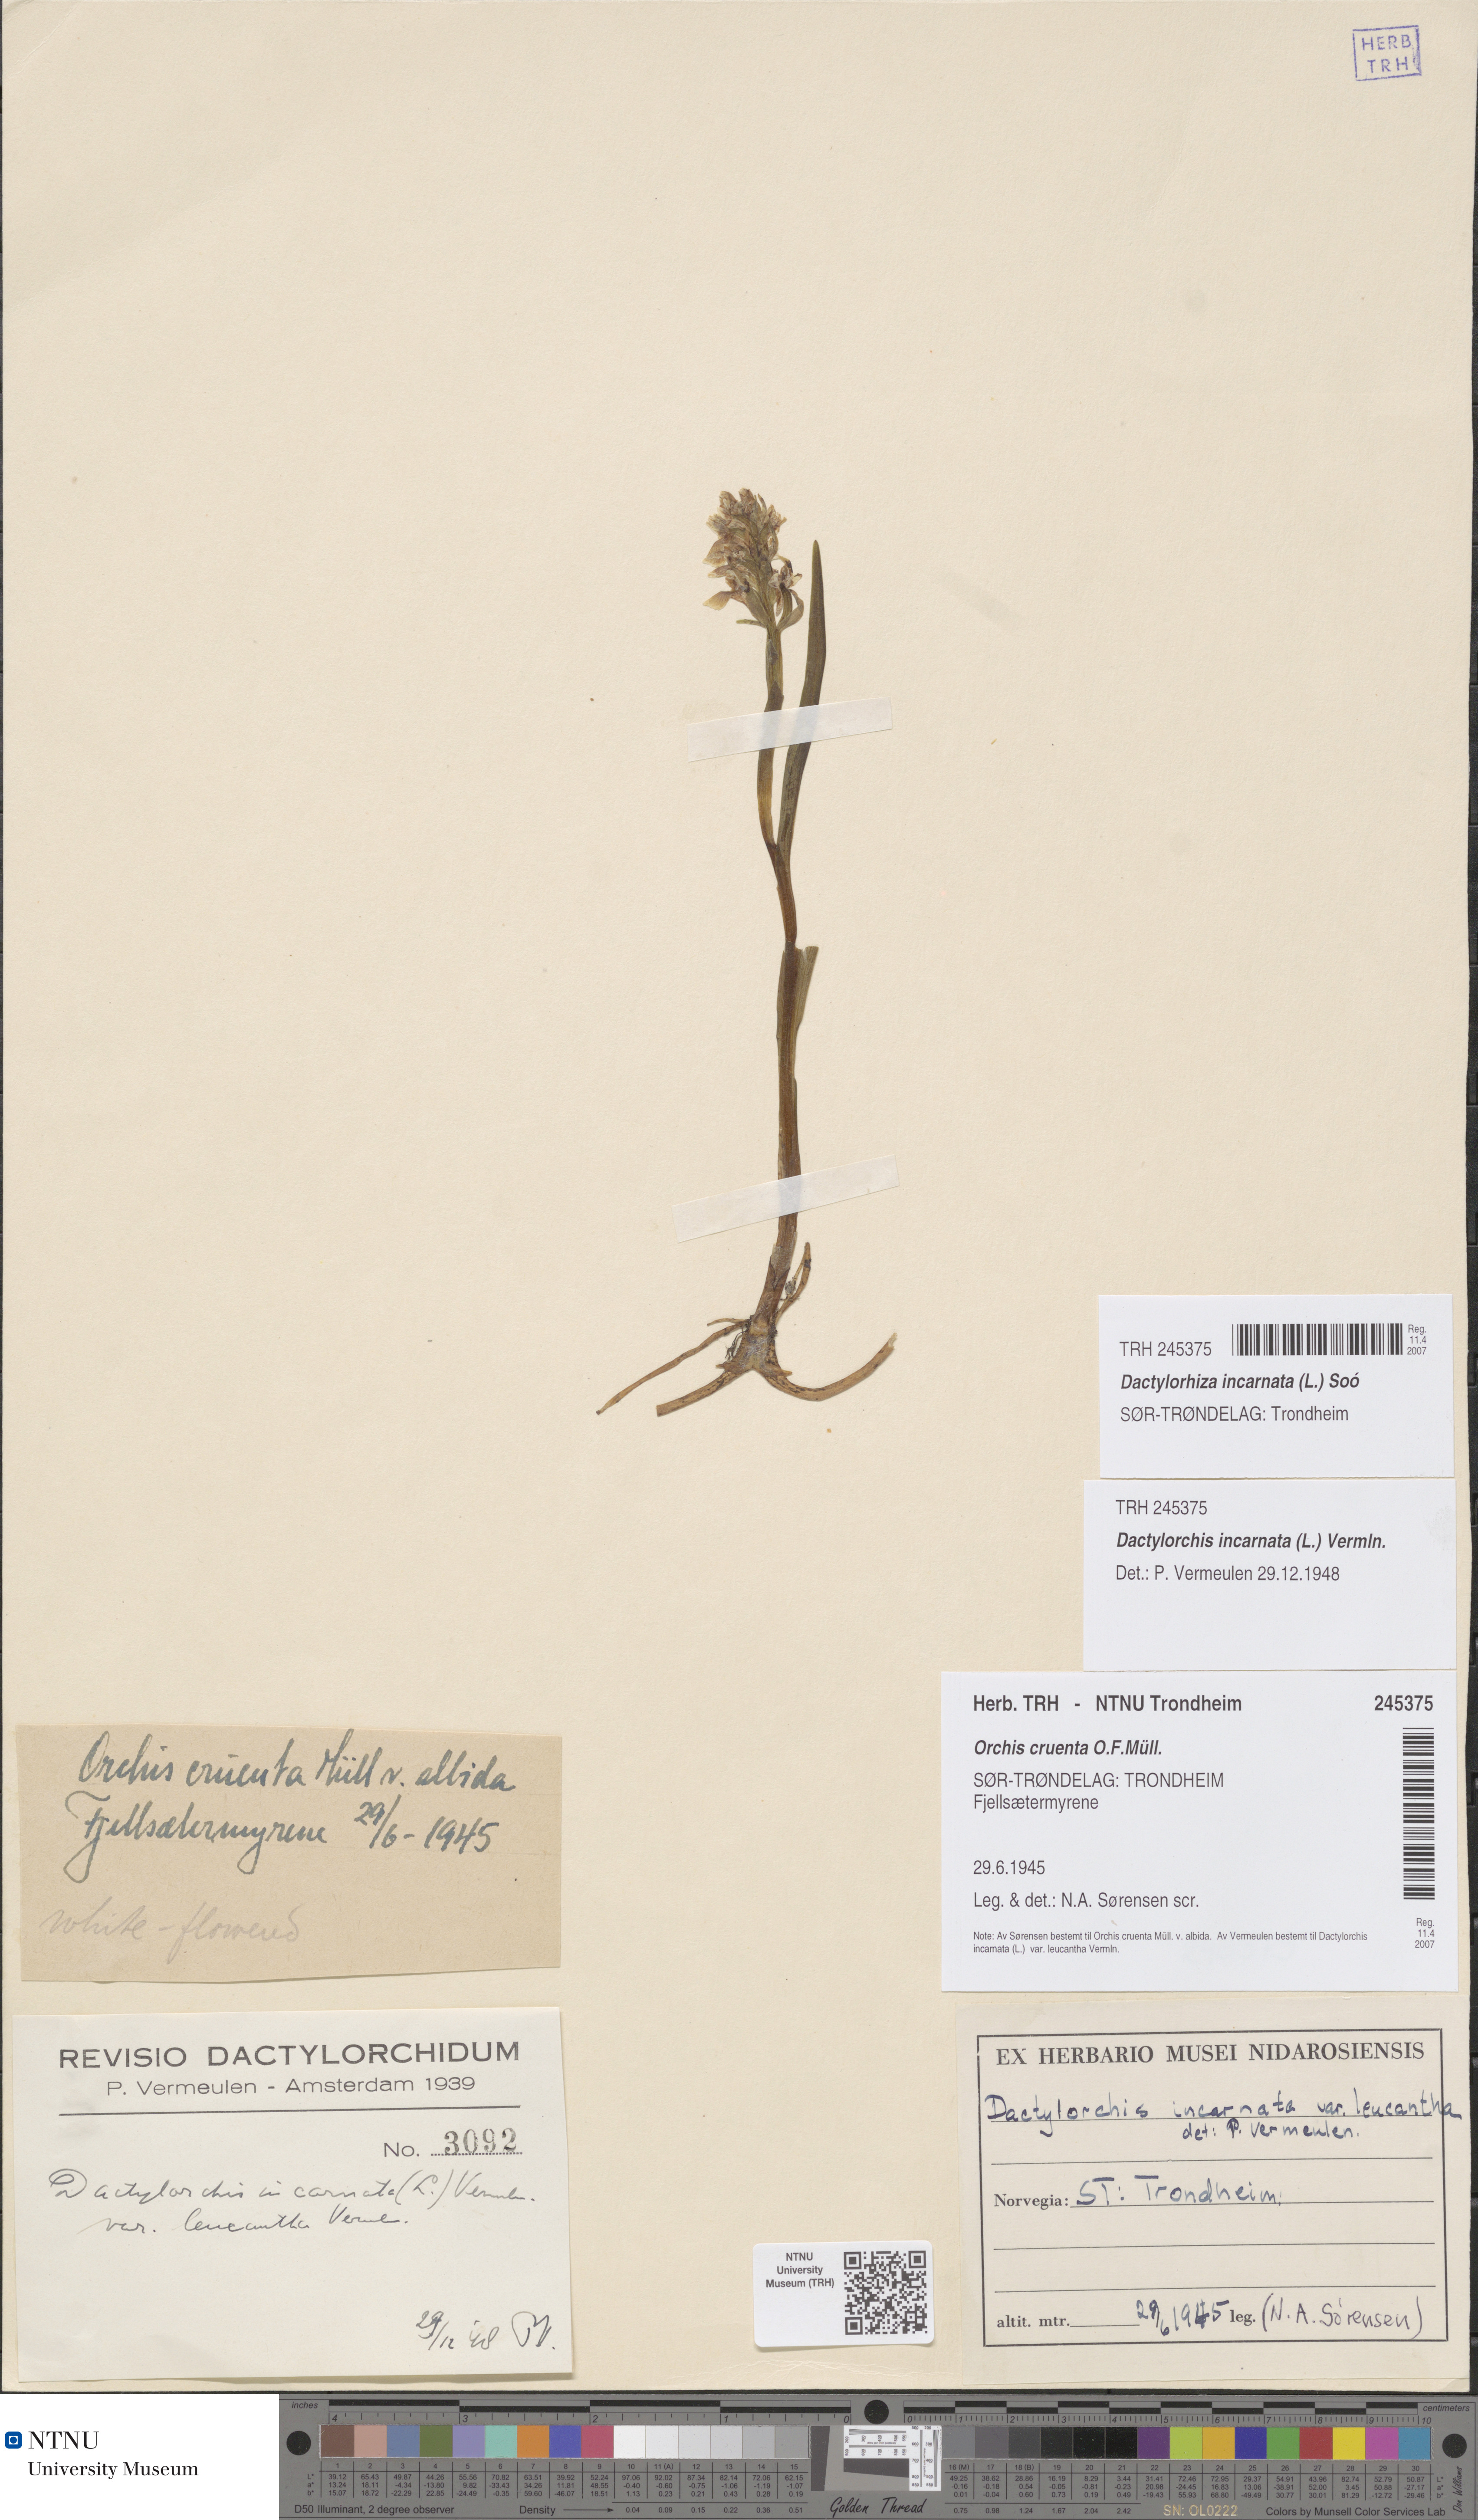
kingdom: Plantae
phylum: Tracheophyta
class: Liliopsida
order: Asparagales
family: Orchidaceae
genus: Dactylorhiza
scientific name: Dactylorhiza incarnata
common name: Early marsh-orchid
